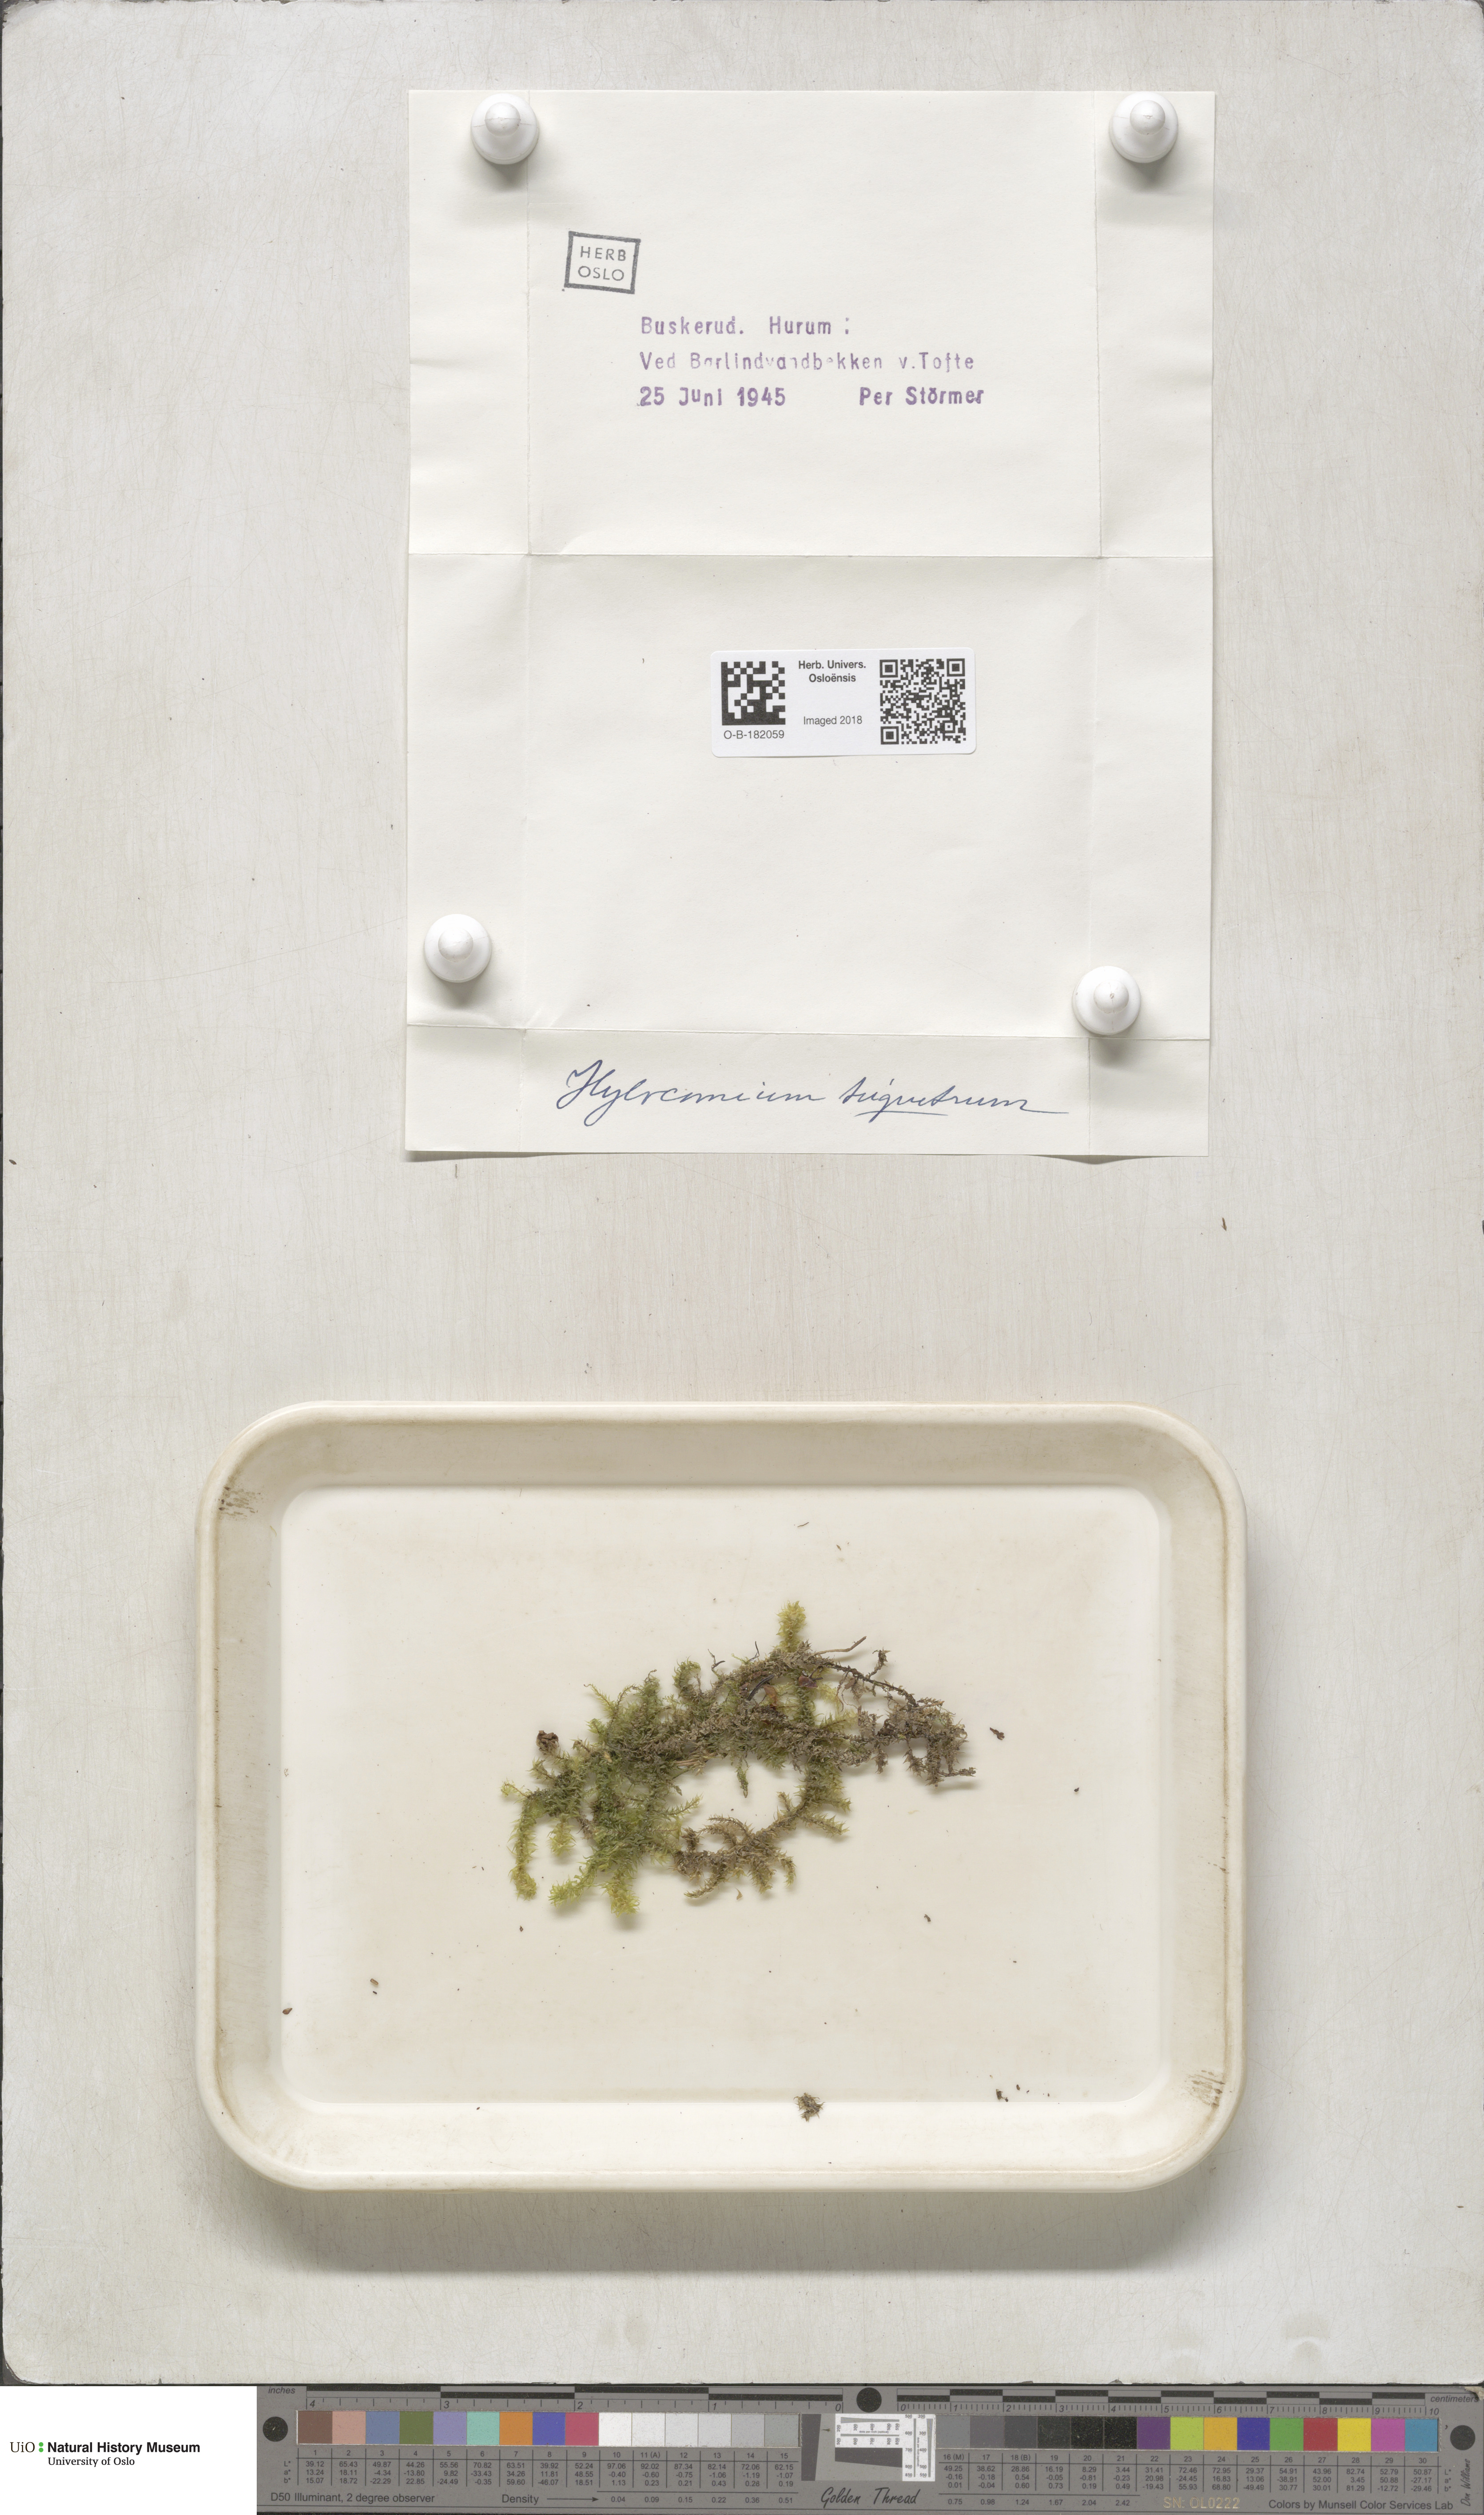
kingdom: Plantae
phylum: Bryophyta
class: Bryopsida
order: Hypnales
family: Hylocomiaceae
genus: Hylocomiadelphus
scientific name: Hylocomiadelphus triquetrus
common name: Rough goose neck moss
